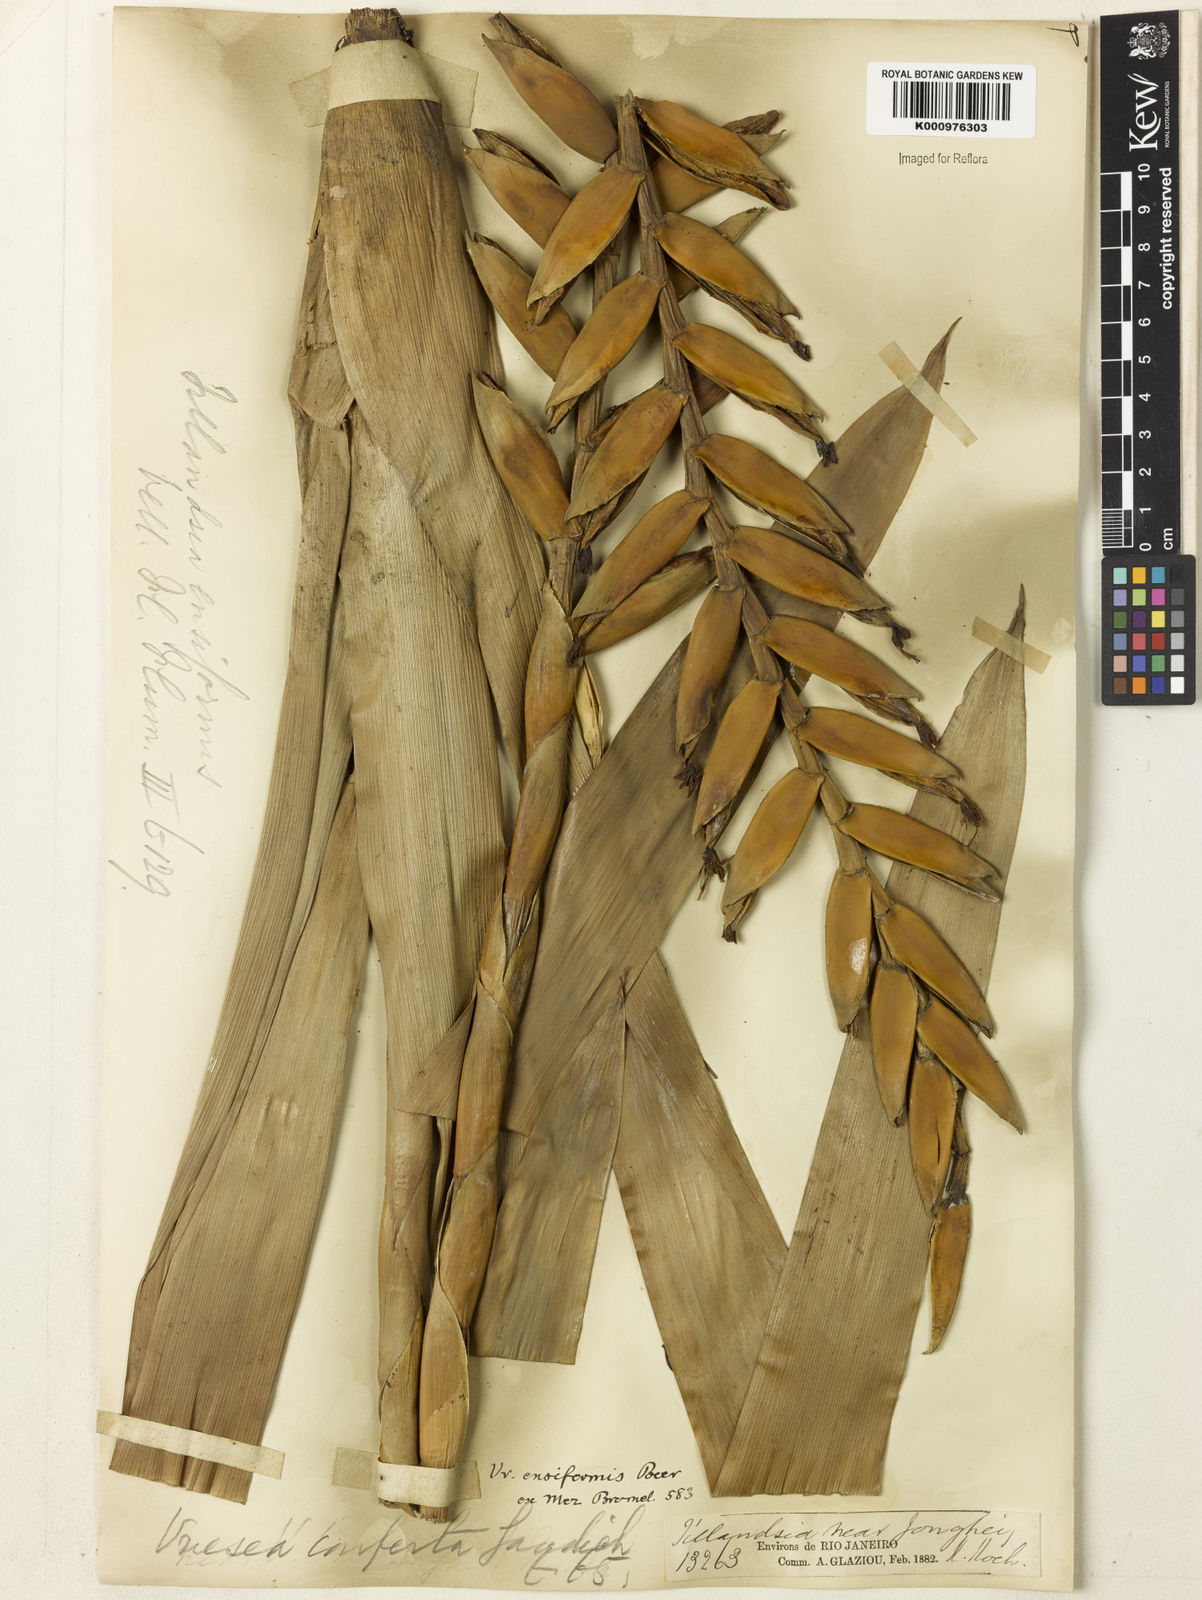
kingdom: Plantae
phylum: Tracheophyta
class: Liliopsida
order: Poales
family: Bromeliaceae
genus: Vriesea
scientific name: Vriesea ensiformis
